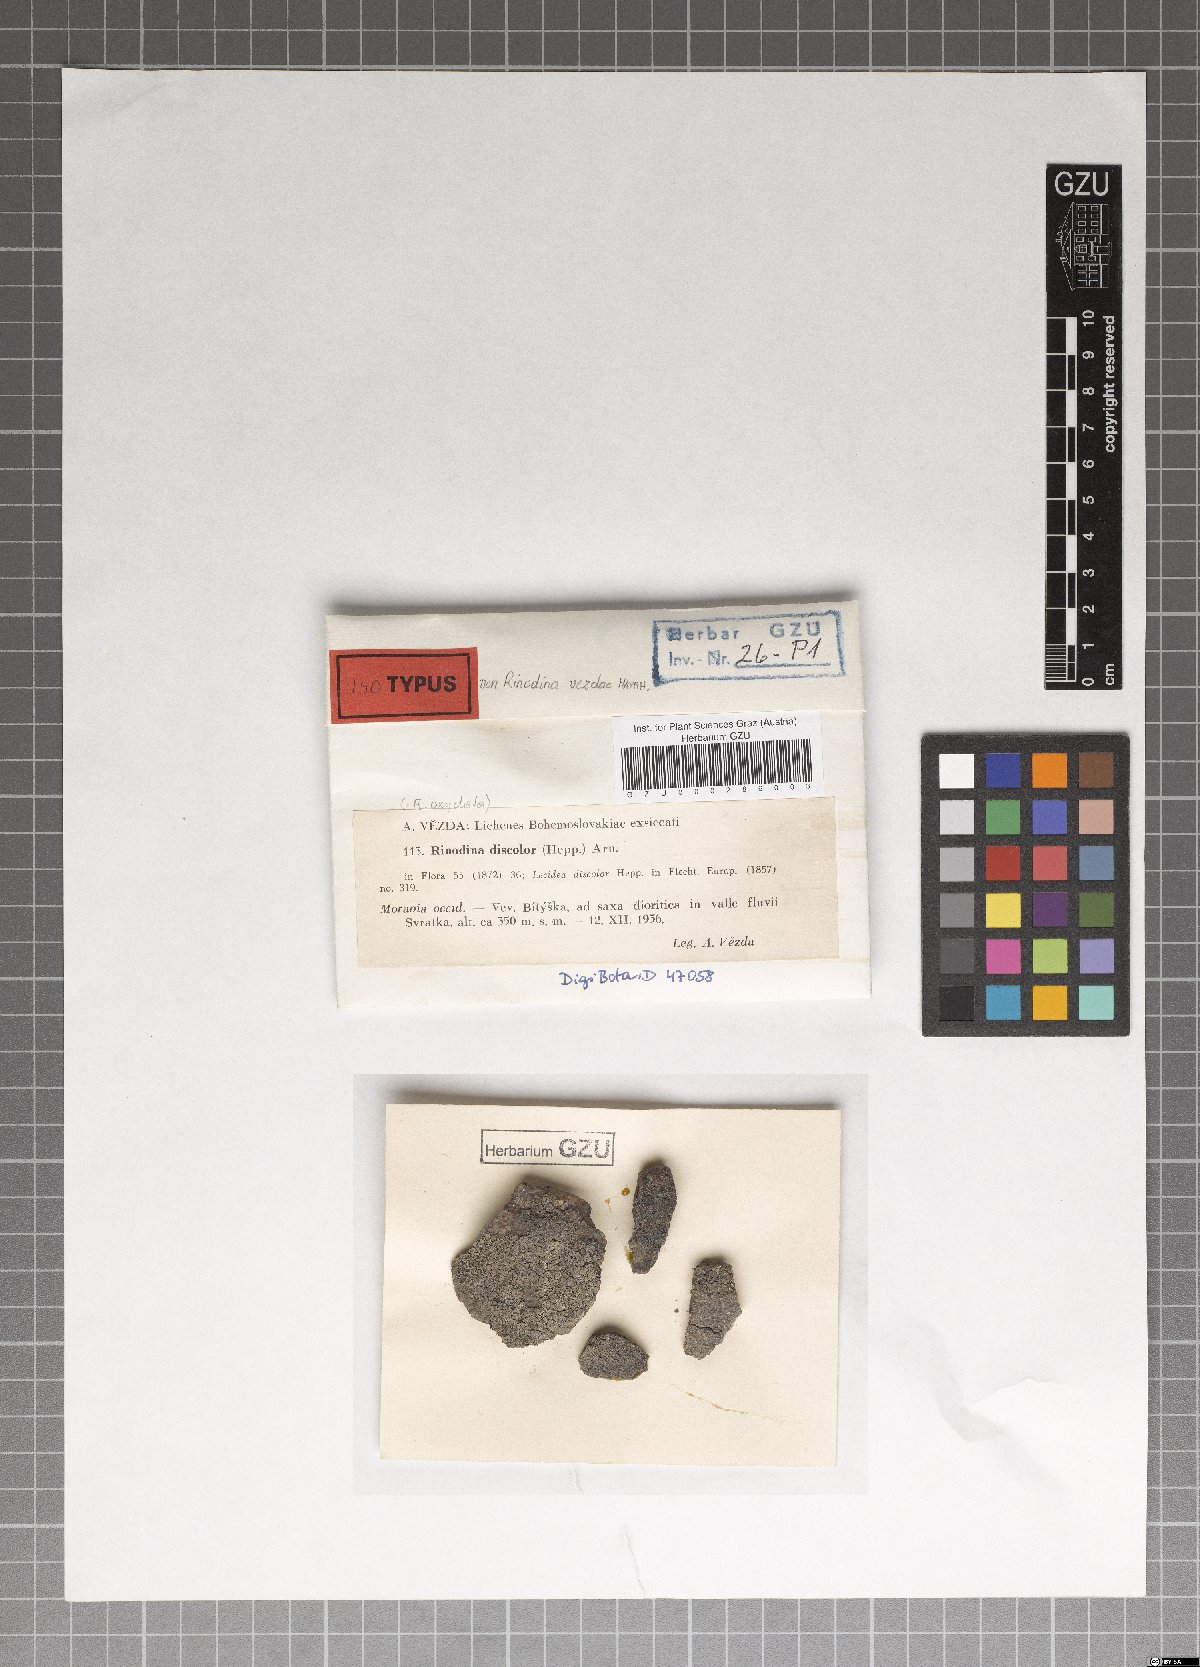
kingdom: Fungi
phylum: Ascomycota
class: Lecanoromycetes
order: Caliciales
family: Physciaceae
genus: Mischoblastia
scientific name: Mischoblastia vezdae
